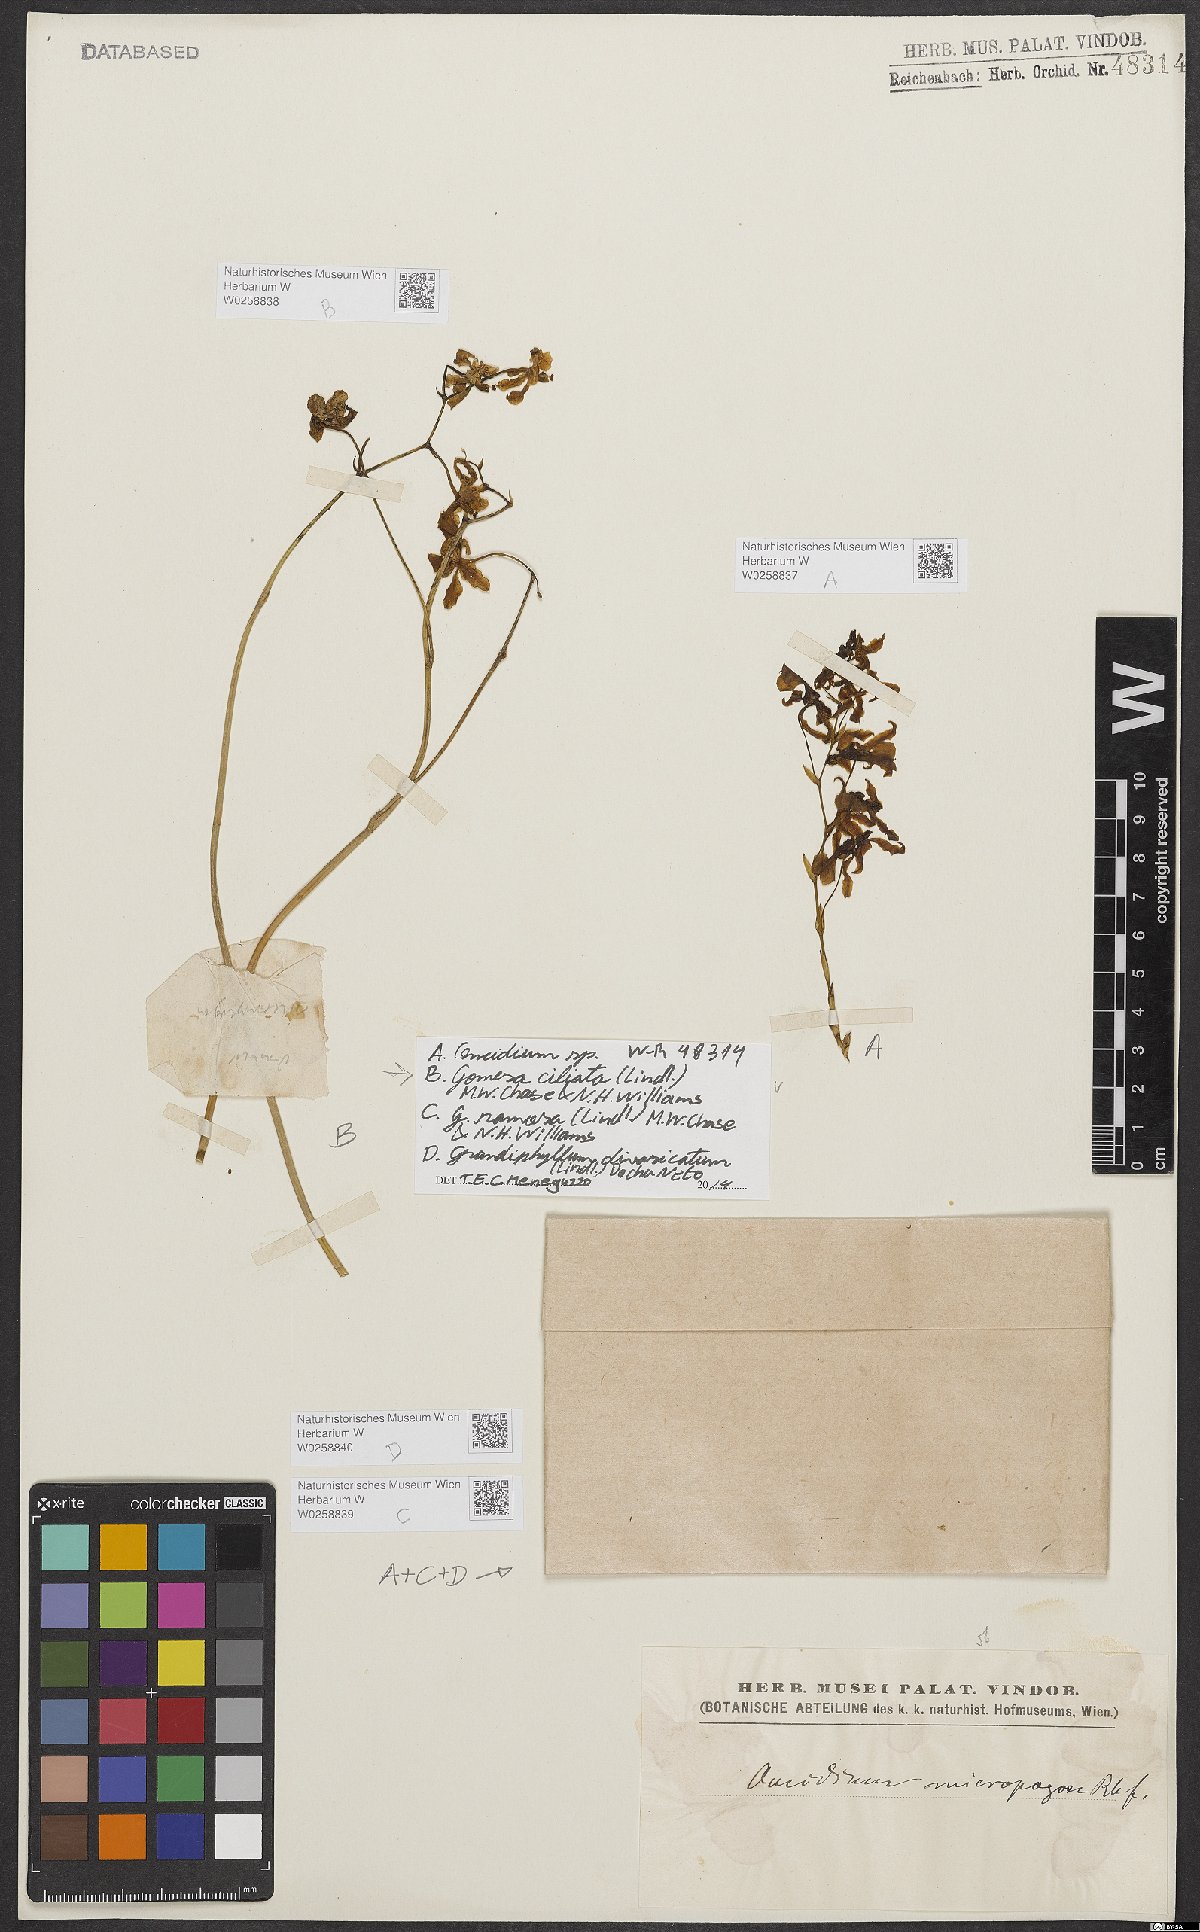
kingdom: Plantae
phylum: Tracheophyta
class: Liliopsida
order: Asparagales
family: Orchidaceae
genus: Grandiphyllum
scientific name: Grandiphyllum divaricatum
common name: Mule-ear orchid
